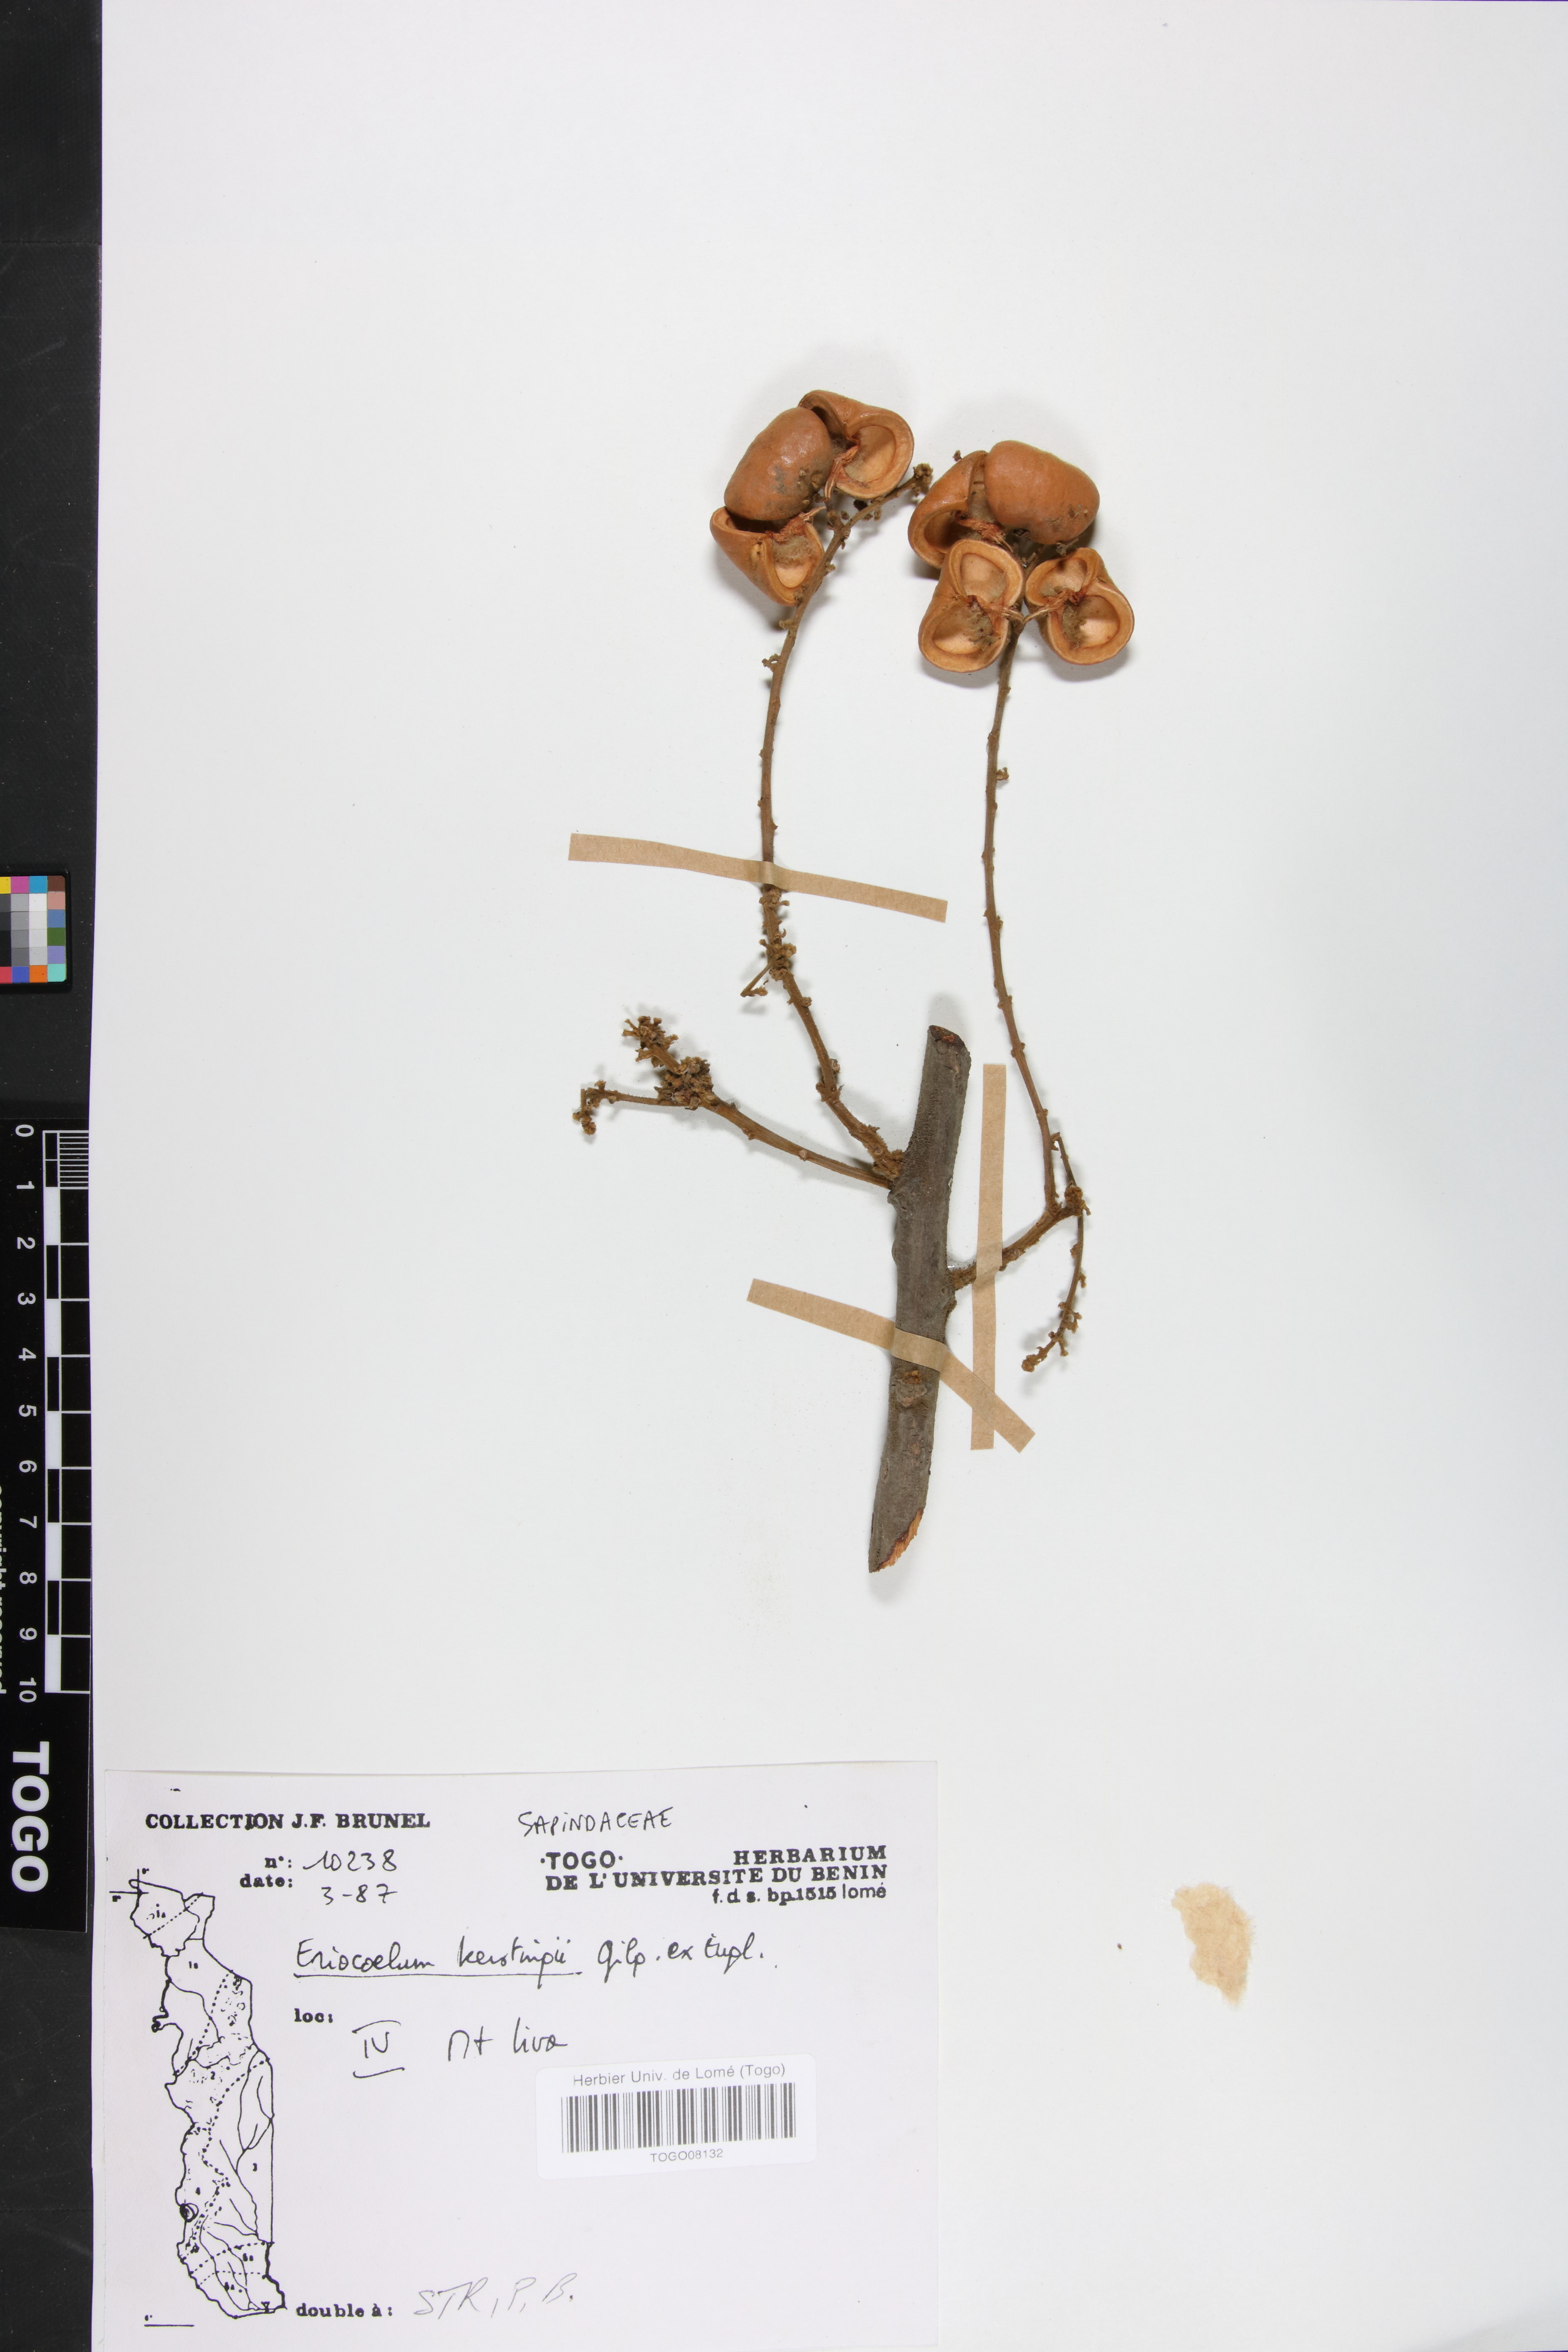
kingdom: Plantae
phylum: Tracheophyta
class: Magnoliopsida
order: Sapindales
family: Sapindaceae
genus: Eriocoelum
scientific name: Eriocoelum kerstingii
